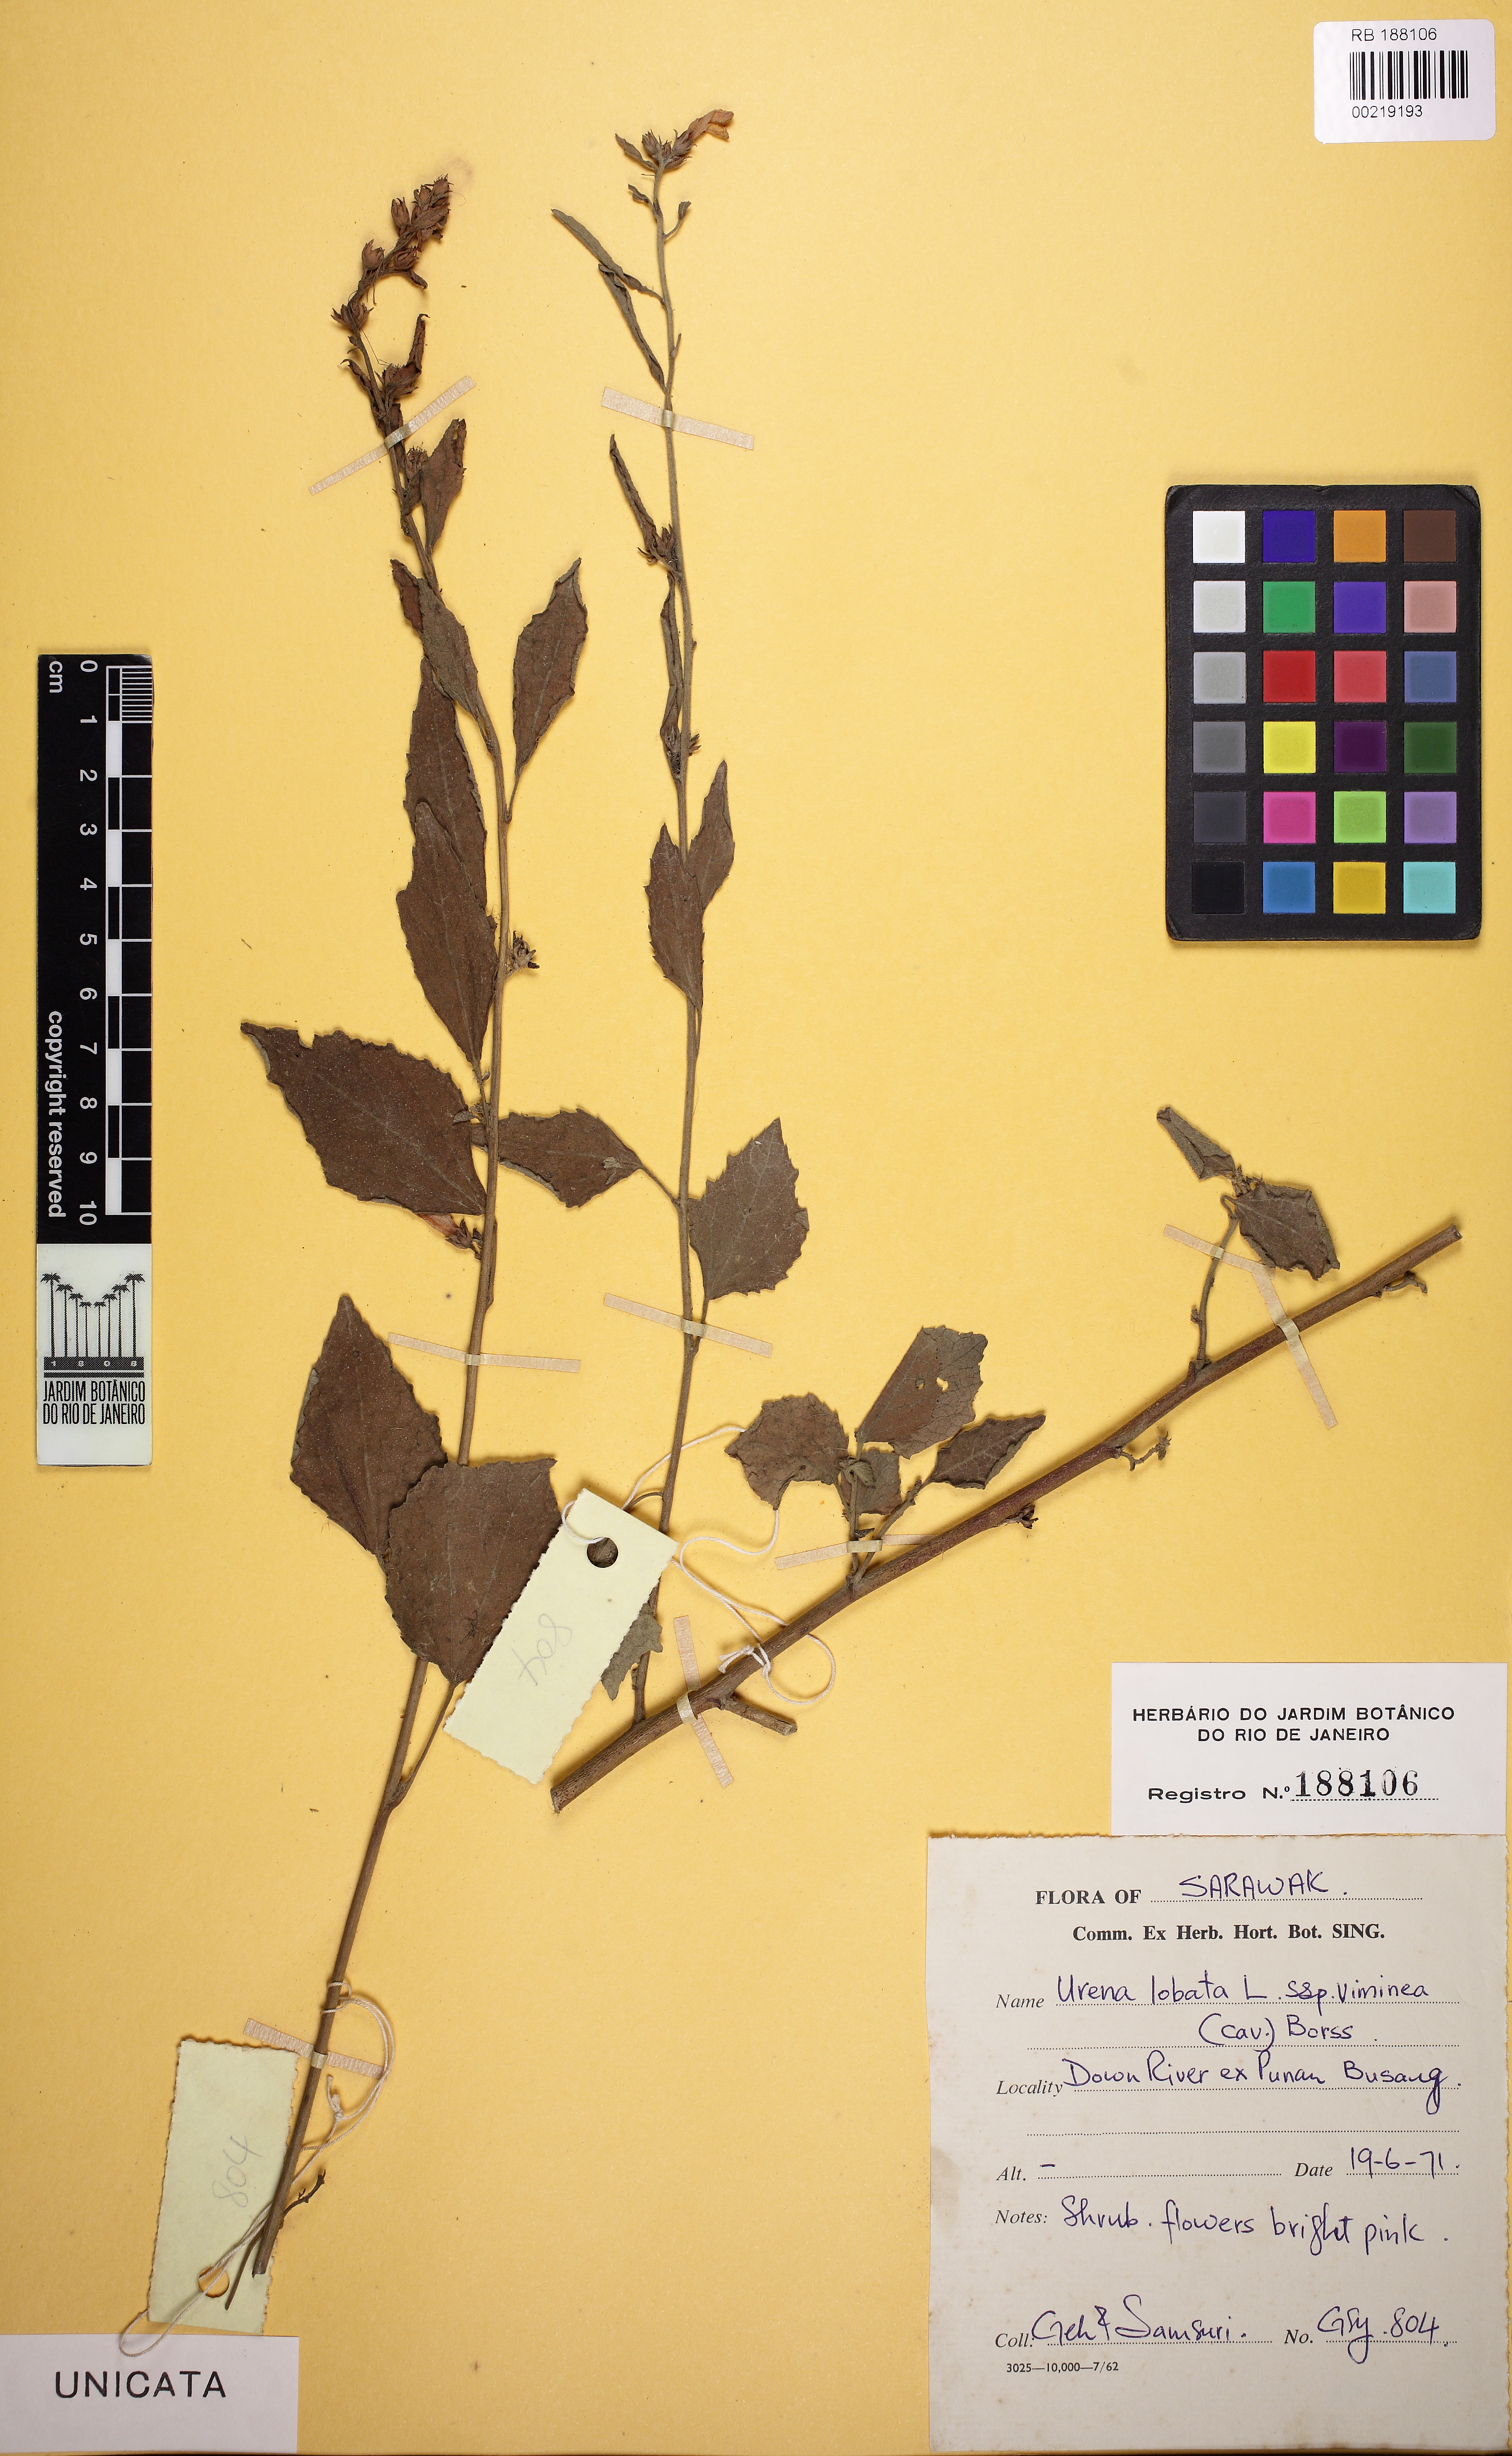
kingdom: Plantae
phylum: Tracheophyta
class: Magnoliopsida
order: Malvales
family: Malvaceae
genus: Urena
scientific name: Urena lobata
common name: Caesarweed
